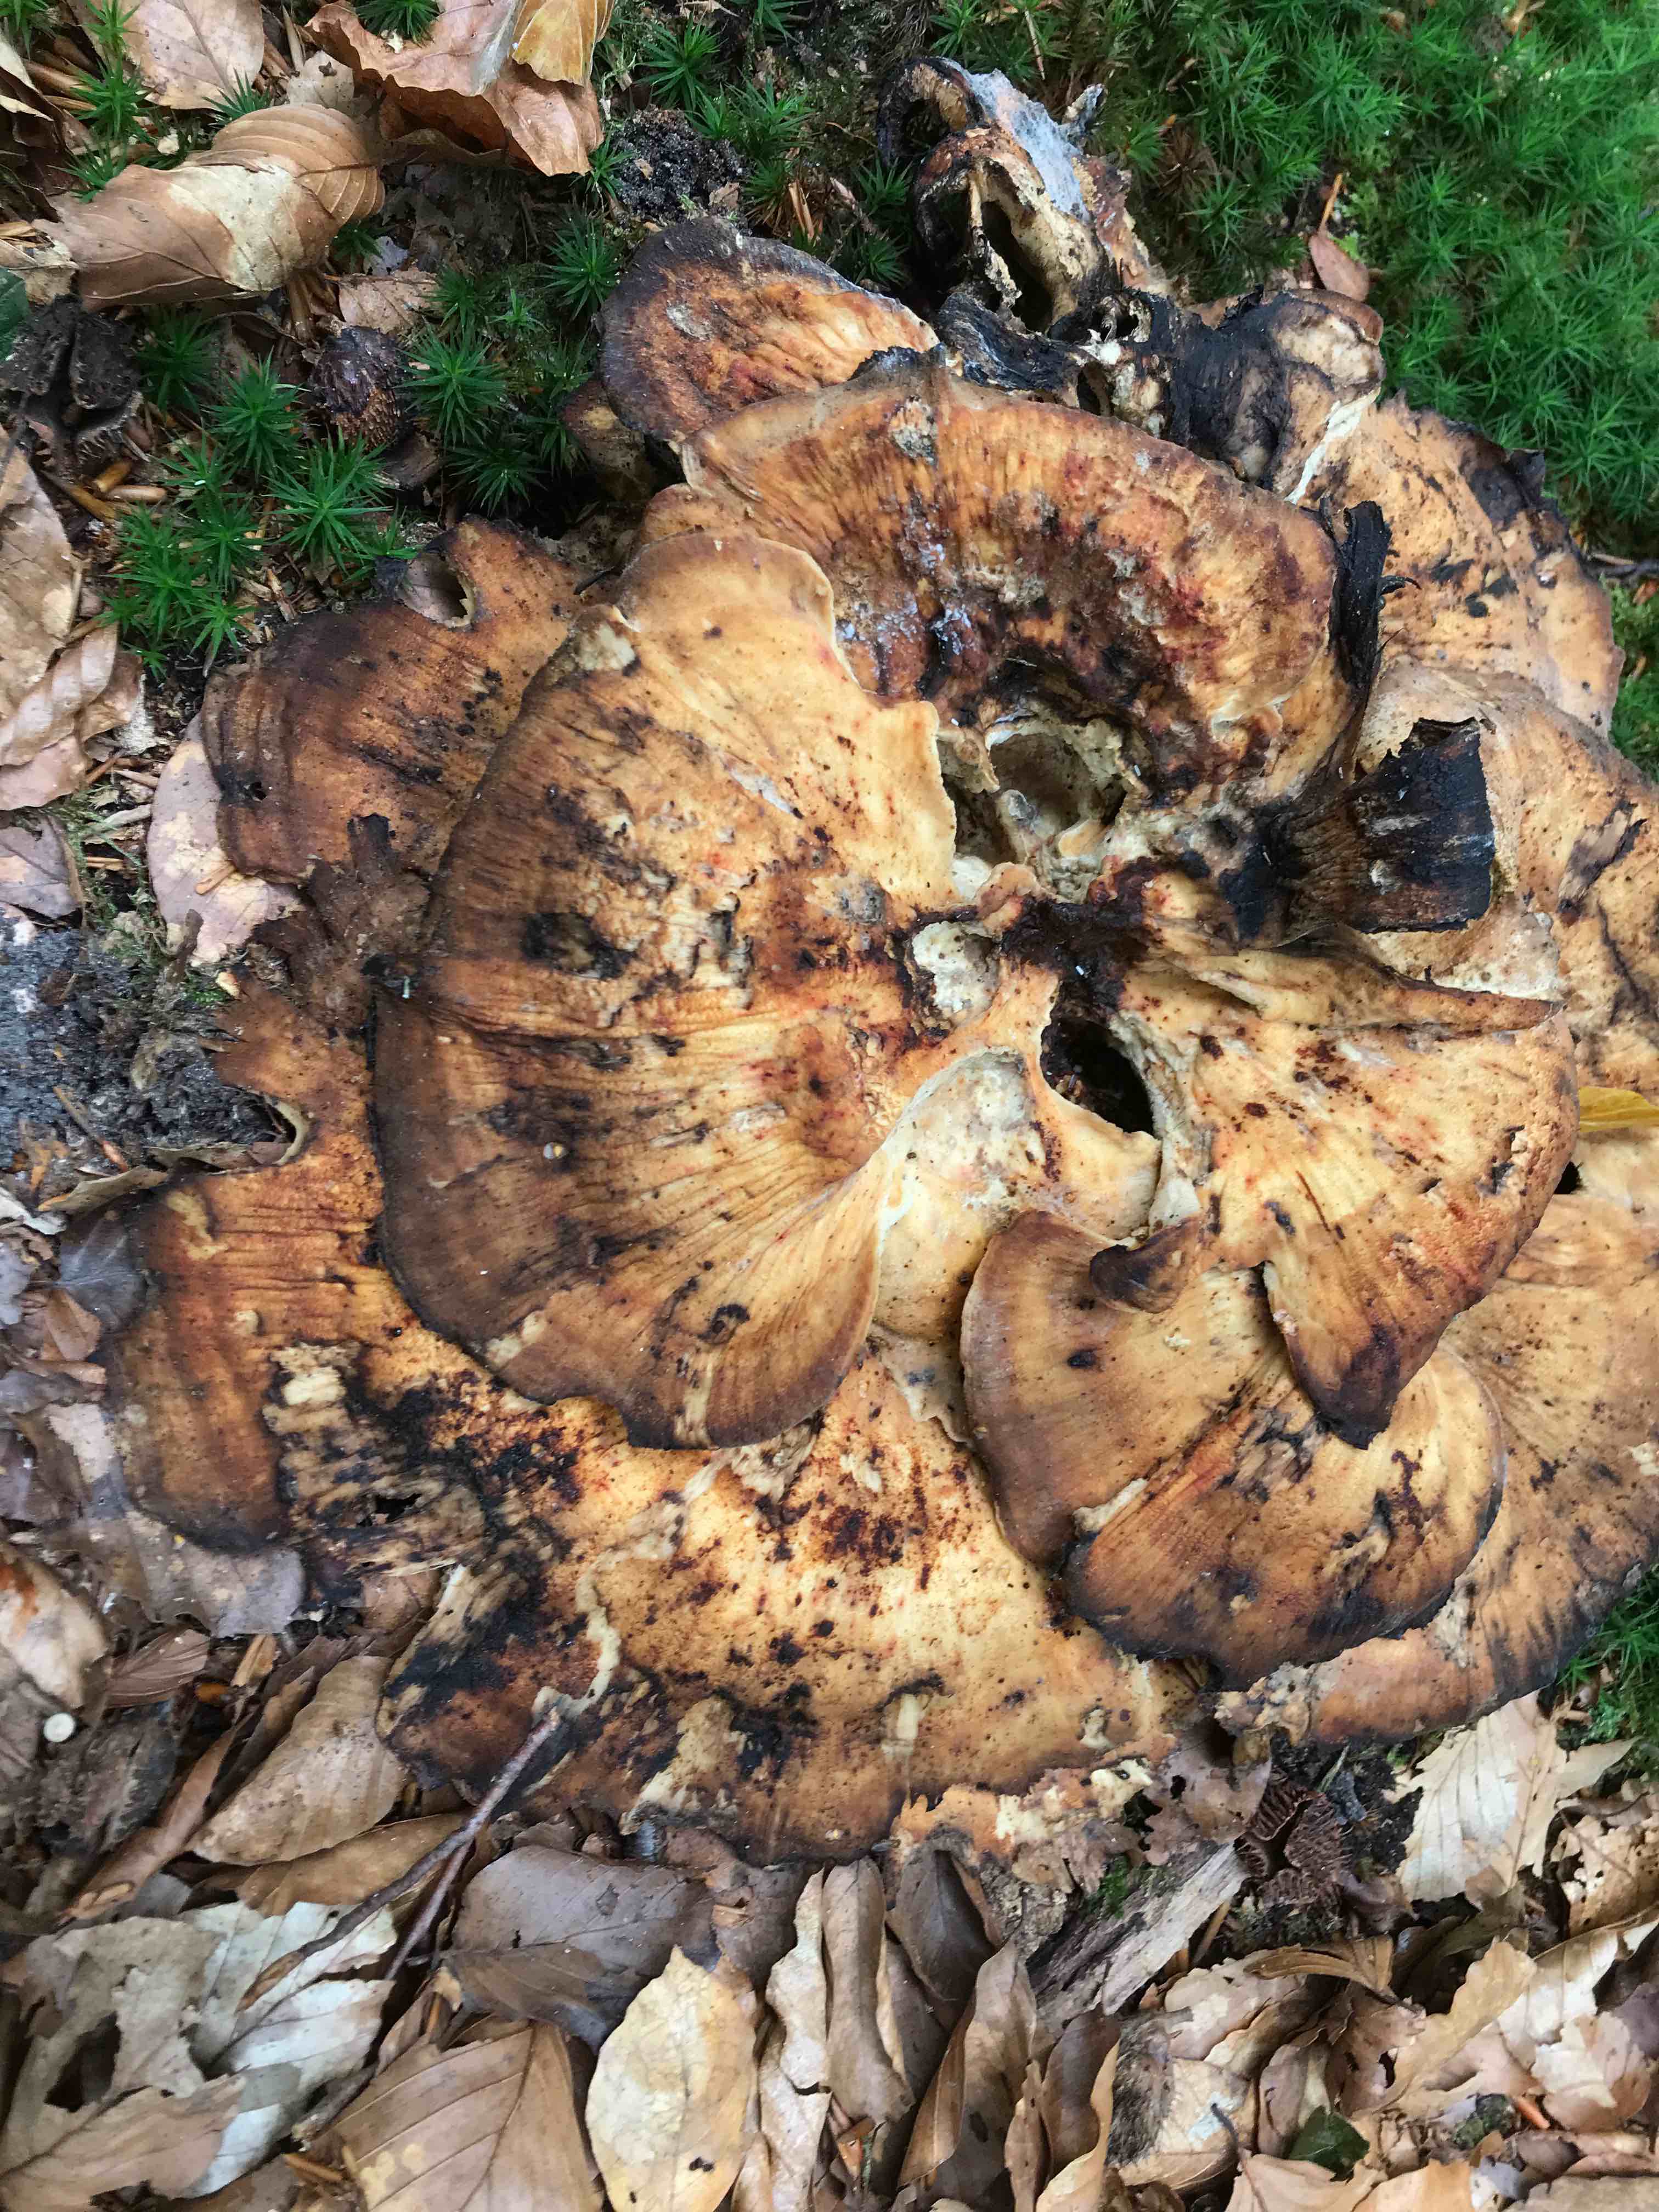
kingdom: Fungi
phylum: Basidiomycota
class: Agaricomycetes
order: Polyporales
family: Meripilaceae
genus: Meripilus
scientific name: Meripilus giganteus
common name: kæmpeporesvamp
